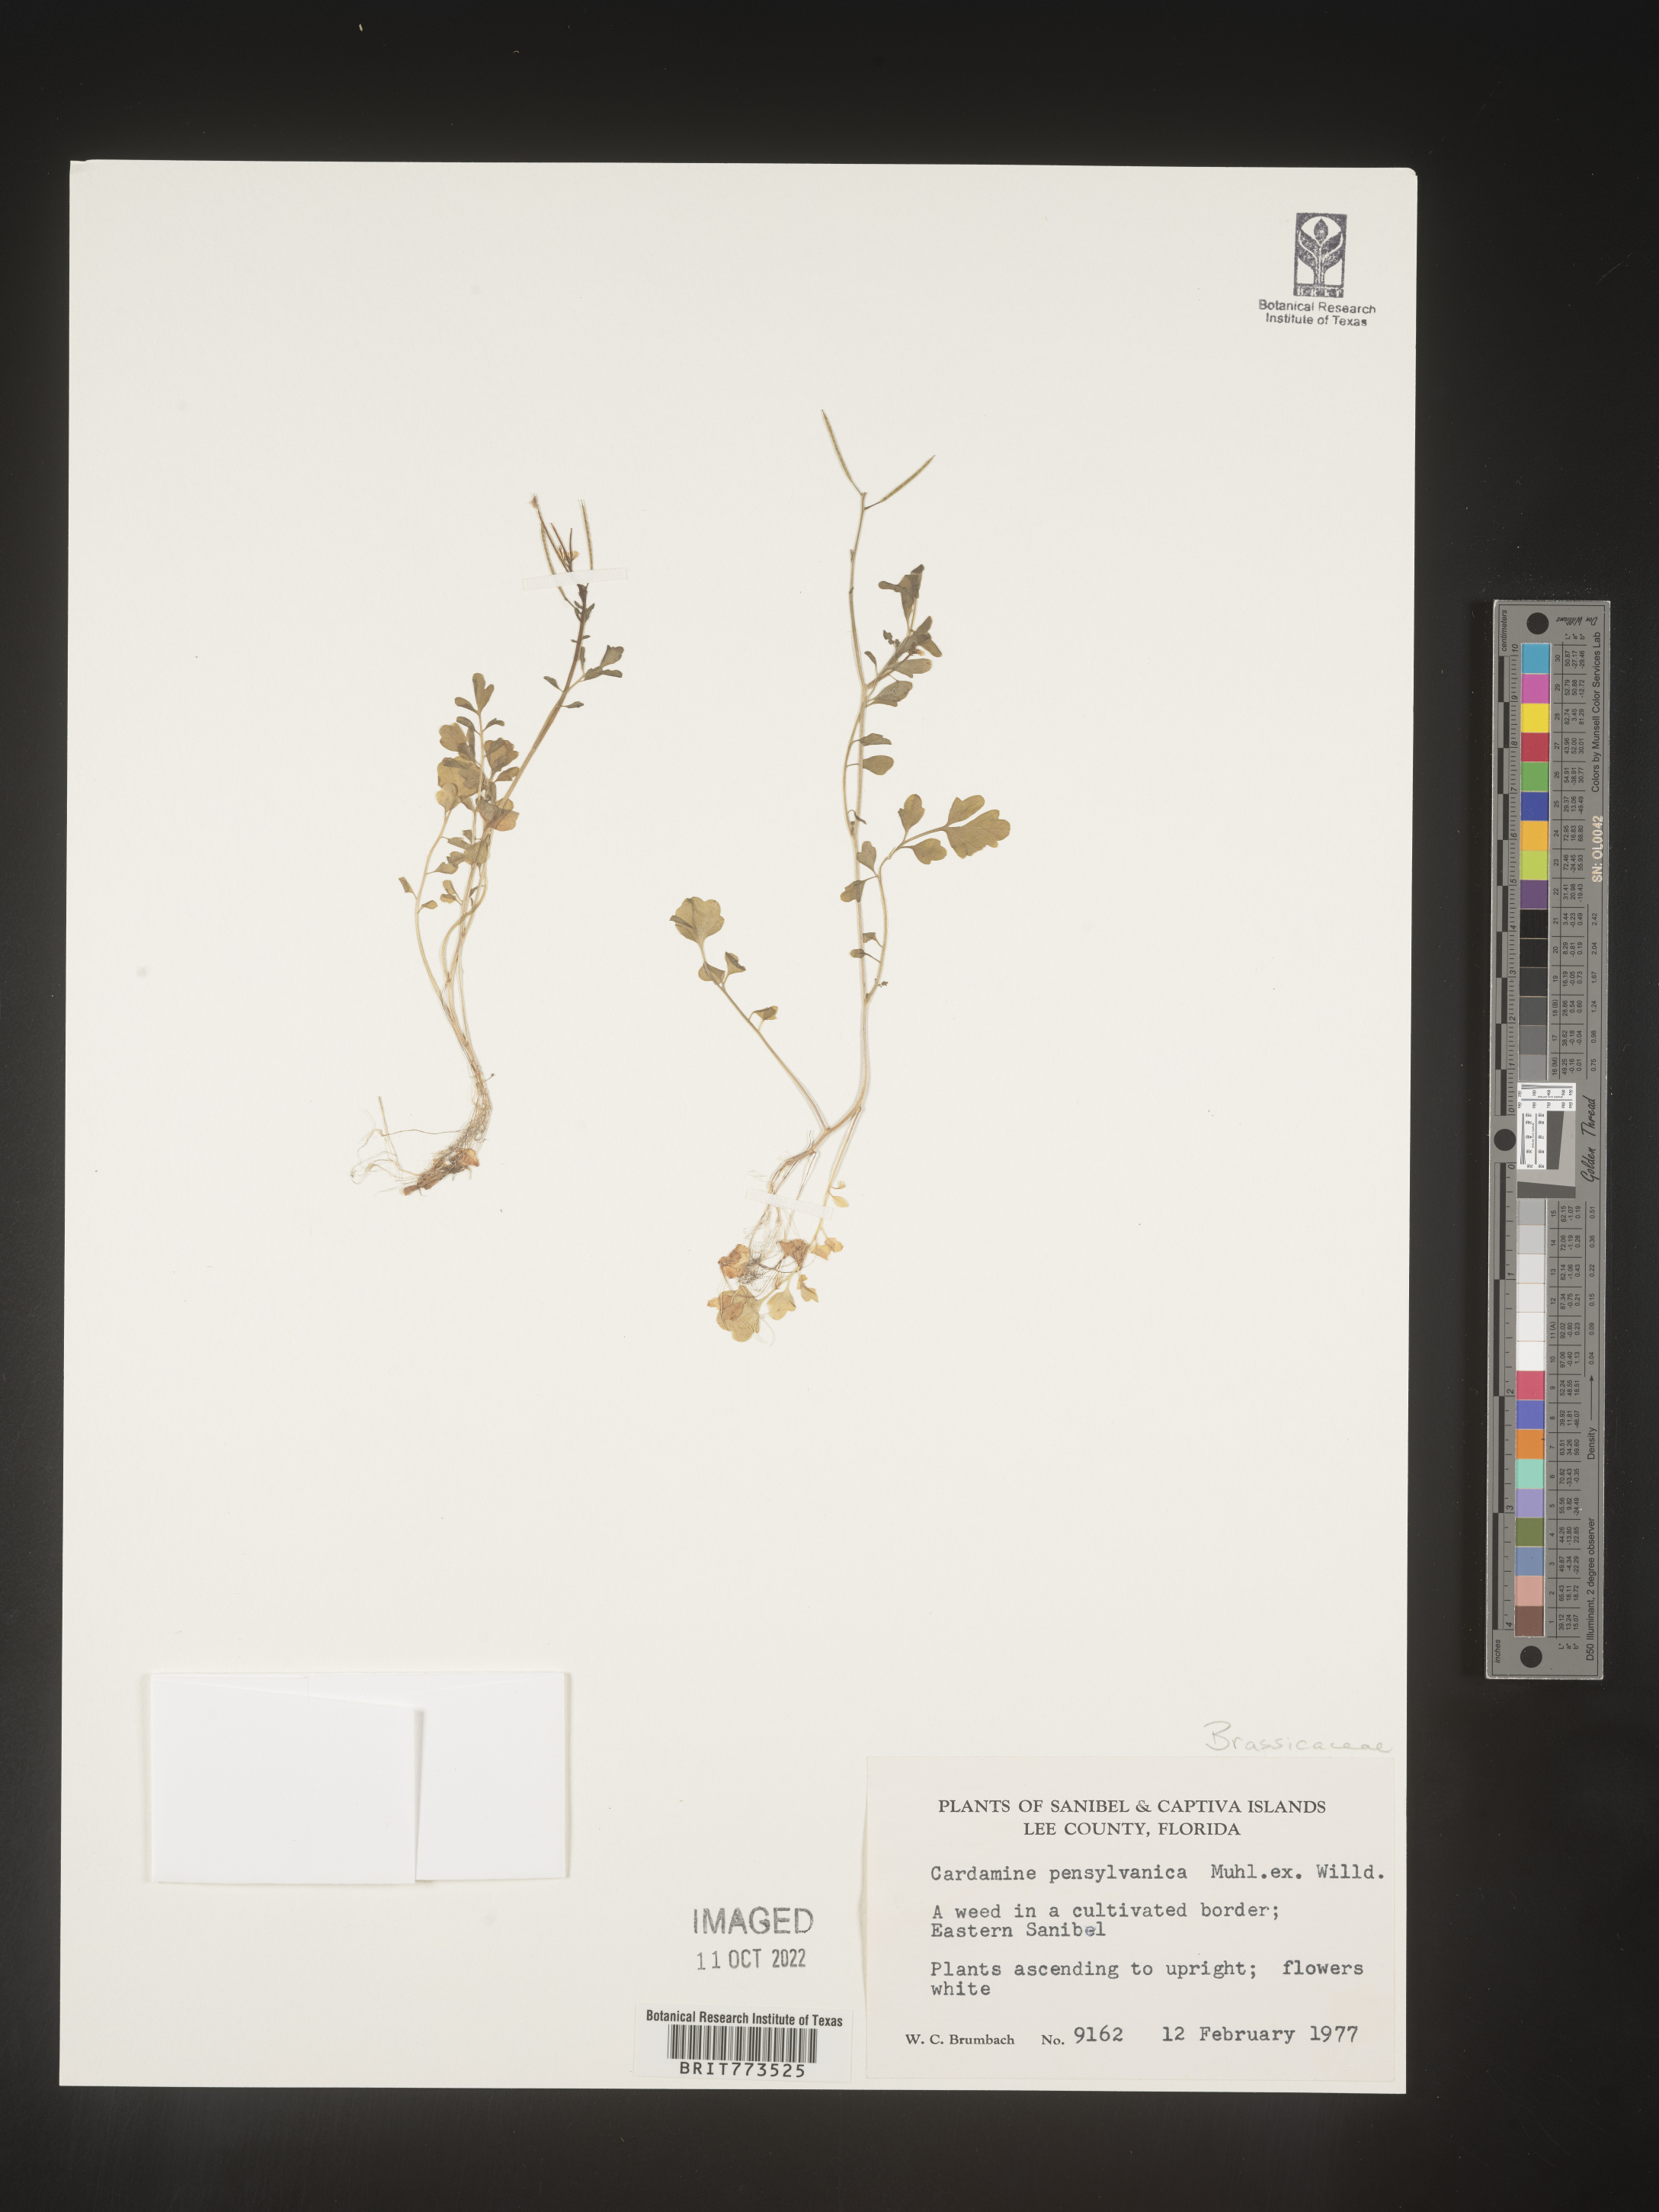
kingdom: Plantae
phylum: Tracheophyta
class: Magnoliopsida
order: Brassicales
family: Brassicaceae
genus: Cardamine
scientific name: Cardamine pensylvanica
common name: Pennsylvania bittercress
